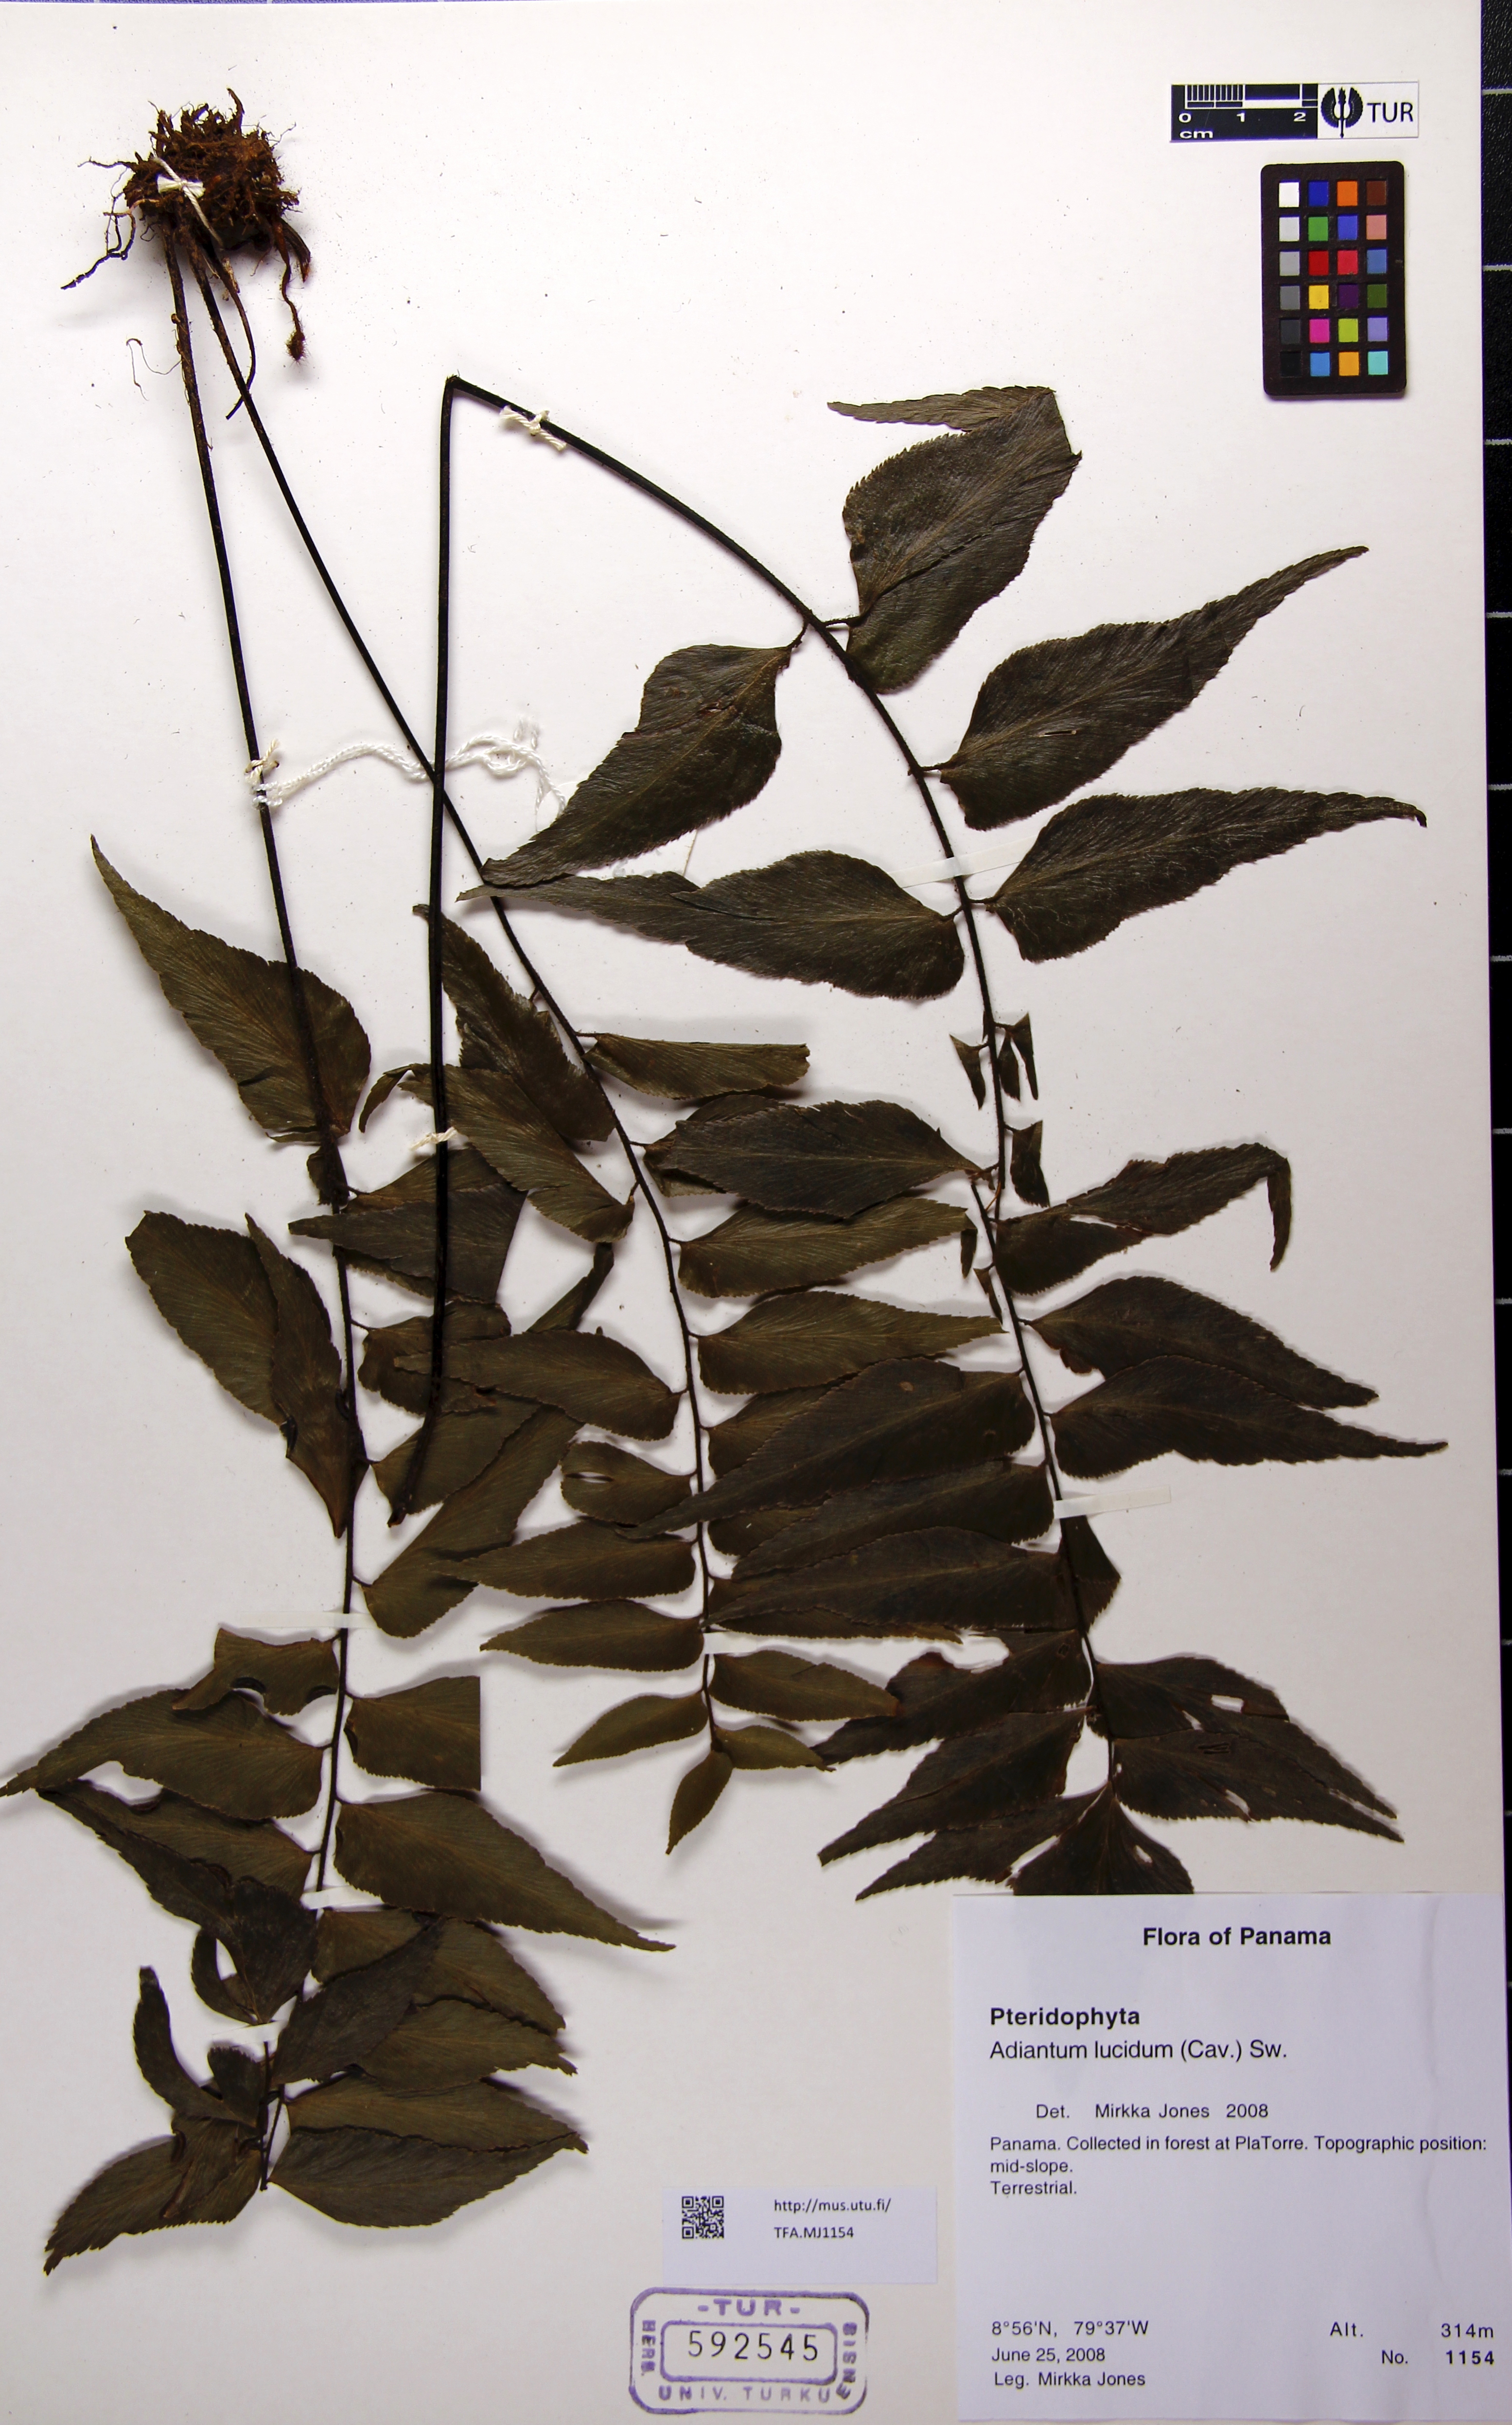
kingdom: Plantae
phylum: Tracheophyta
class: Polypodiopsida
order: Polypodiales
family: Pteridaceae
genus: Adiantum
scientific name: Adiantum lucidum
